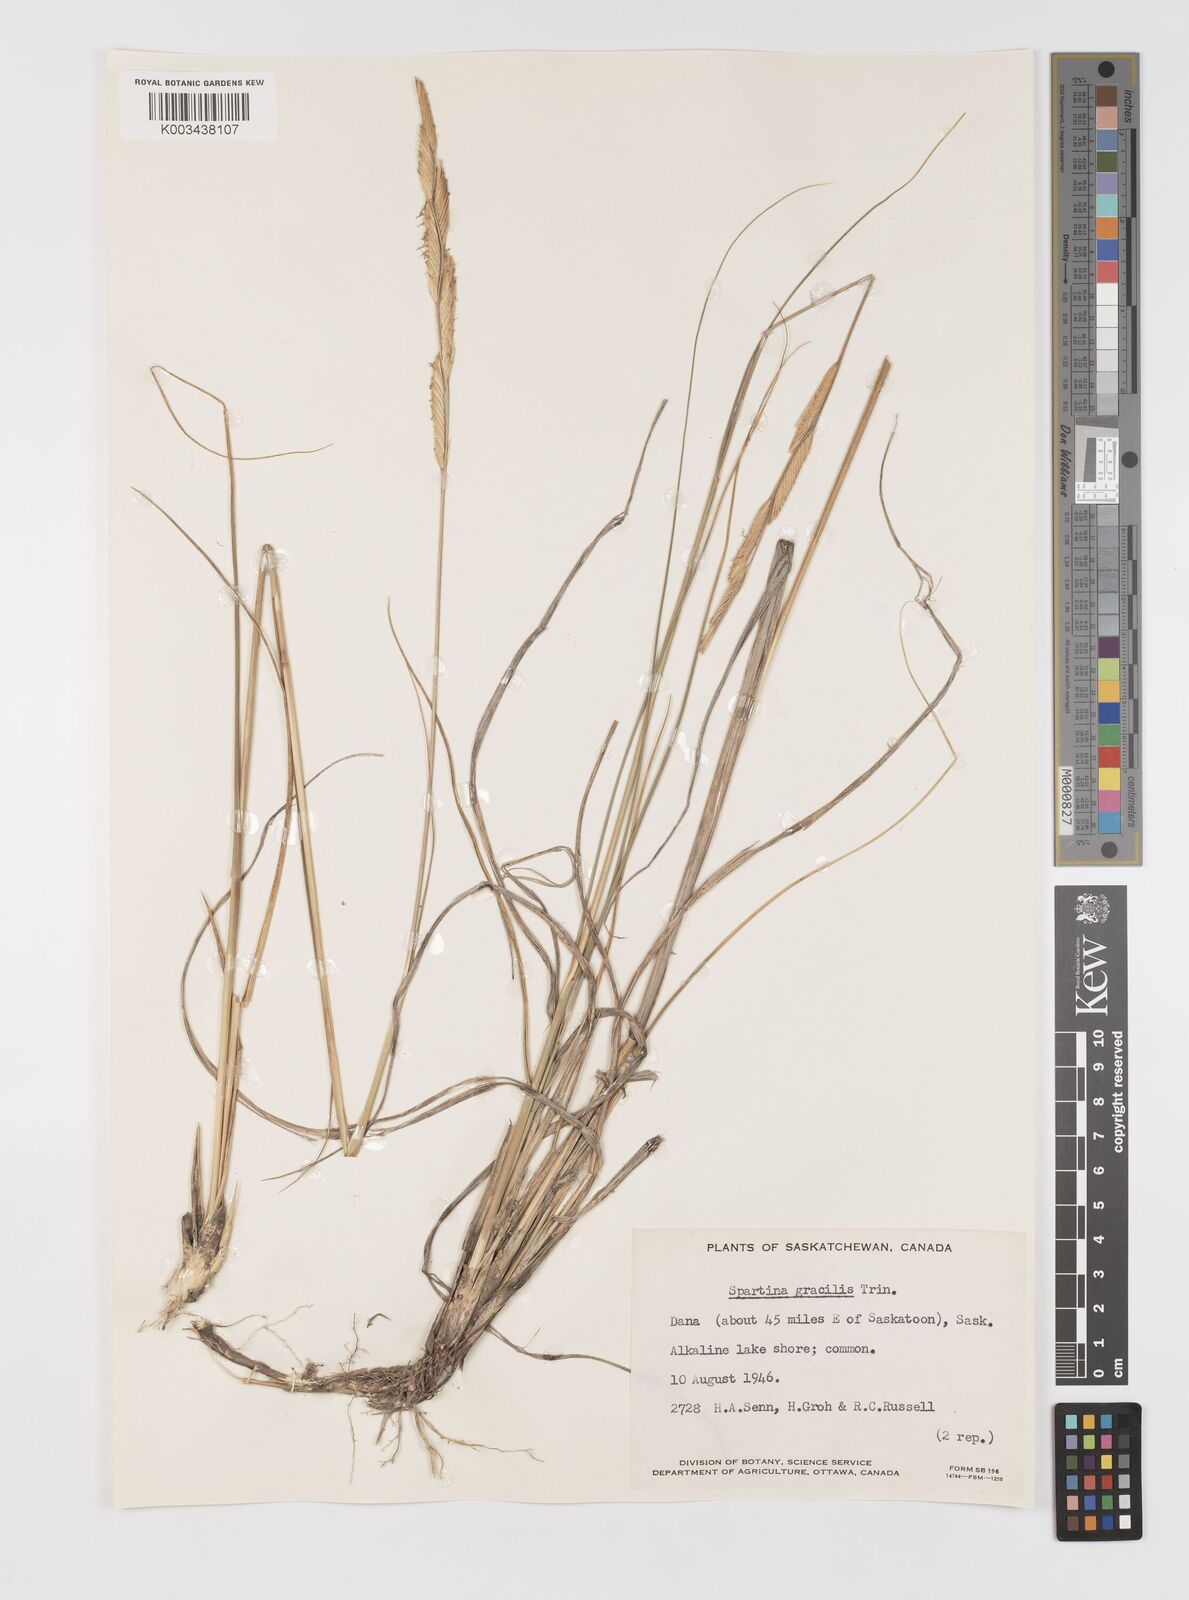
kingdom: Plantae
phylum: Tracheophyta
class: Liliopsida
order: Poales
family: Poaceae
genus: Sporobolus
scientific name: Sporobolus hookerianus
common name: Alkali cordgrass
